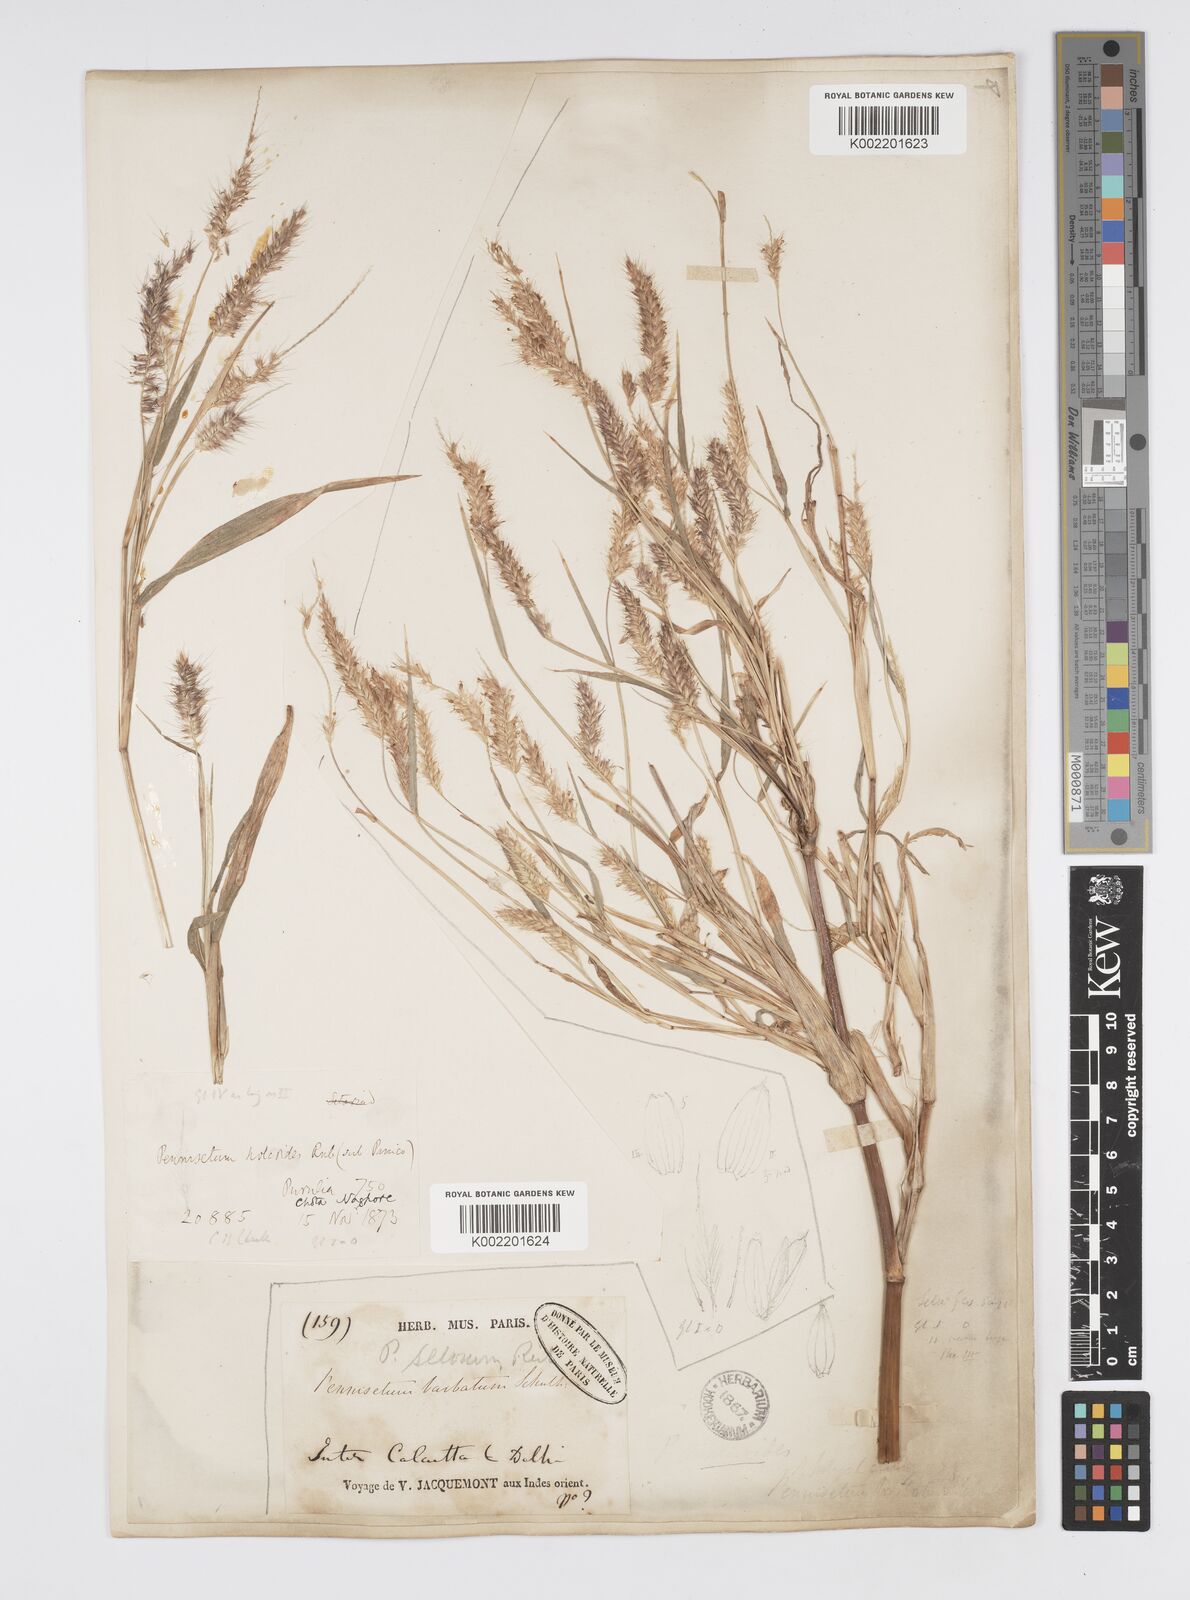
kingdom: Plantae
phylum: Tracheophyta
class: Liliopsida
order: Poales
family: Poaceae
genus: Setaria
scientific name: Setaria parviflora
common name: Knotroot bristle-grass
